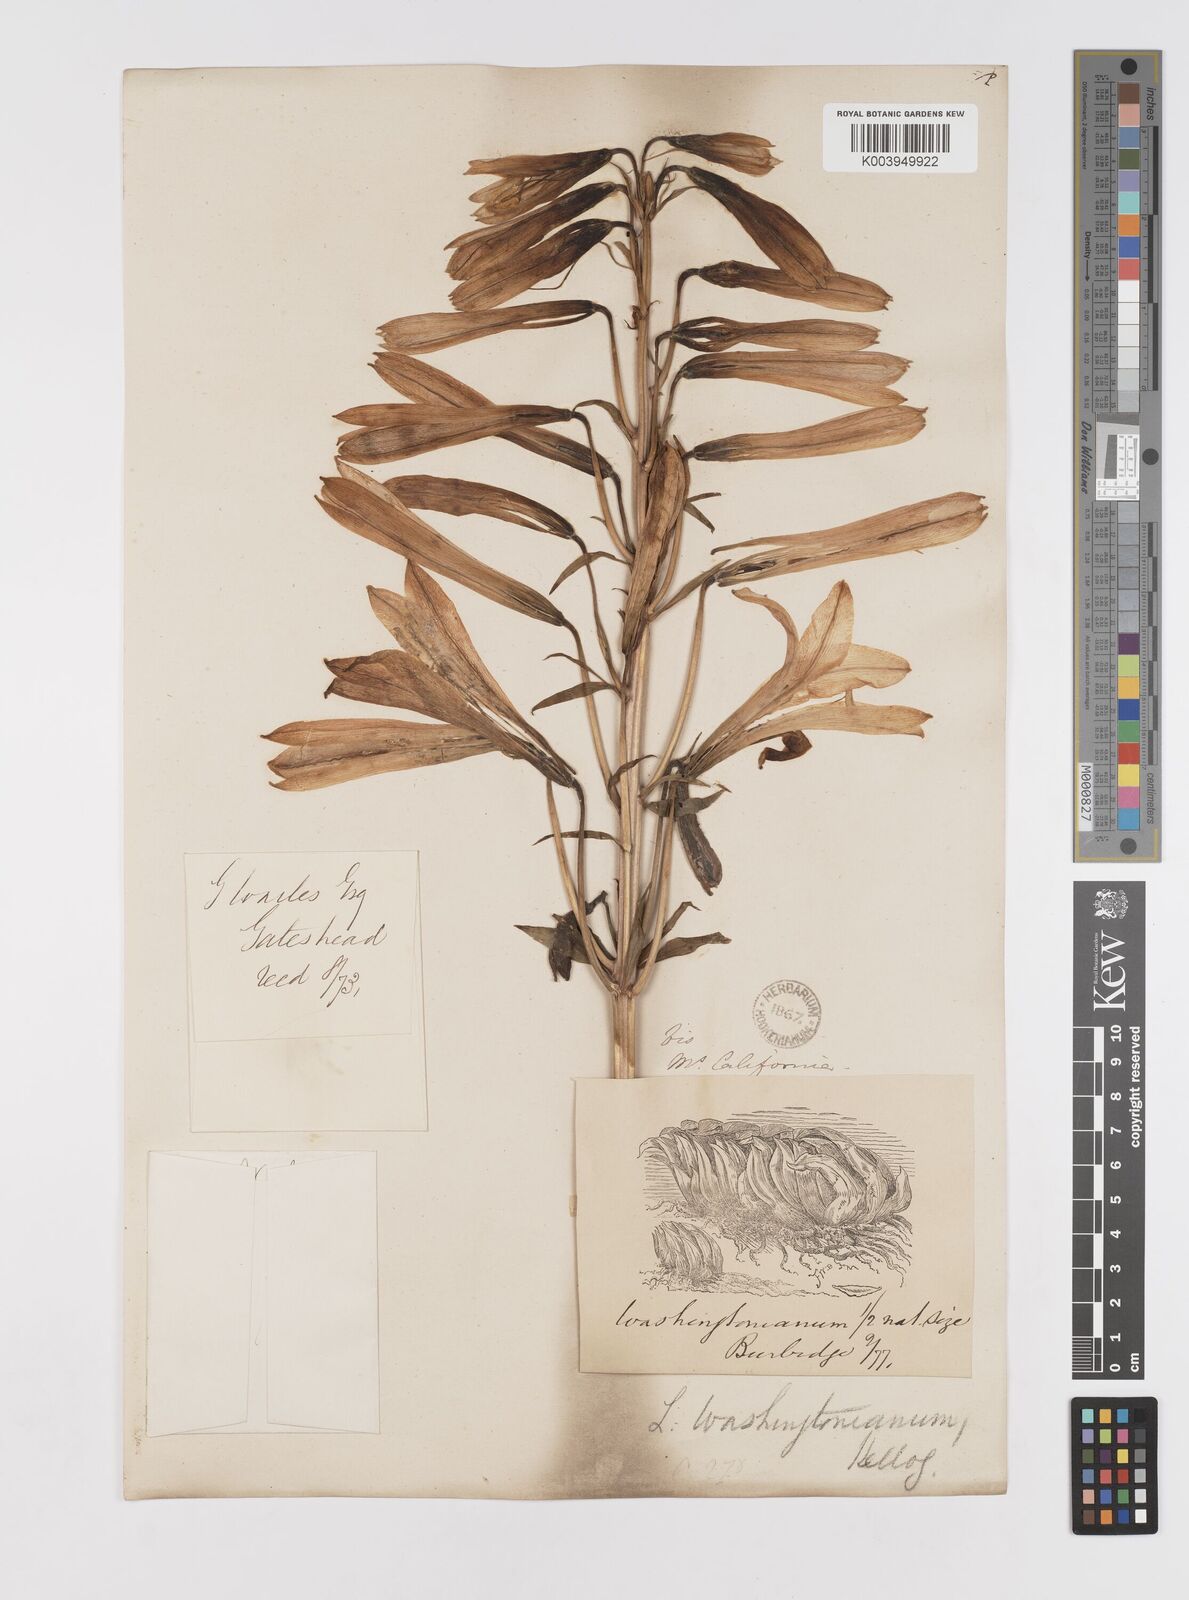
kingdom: Plantae
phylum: Tracheophyta
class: Liliopsida
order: Liliales
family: Liliaceae
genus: Lilium
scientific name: Lilium washingtonianum
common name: Washington lily
